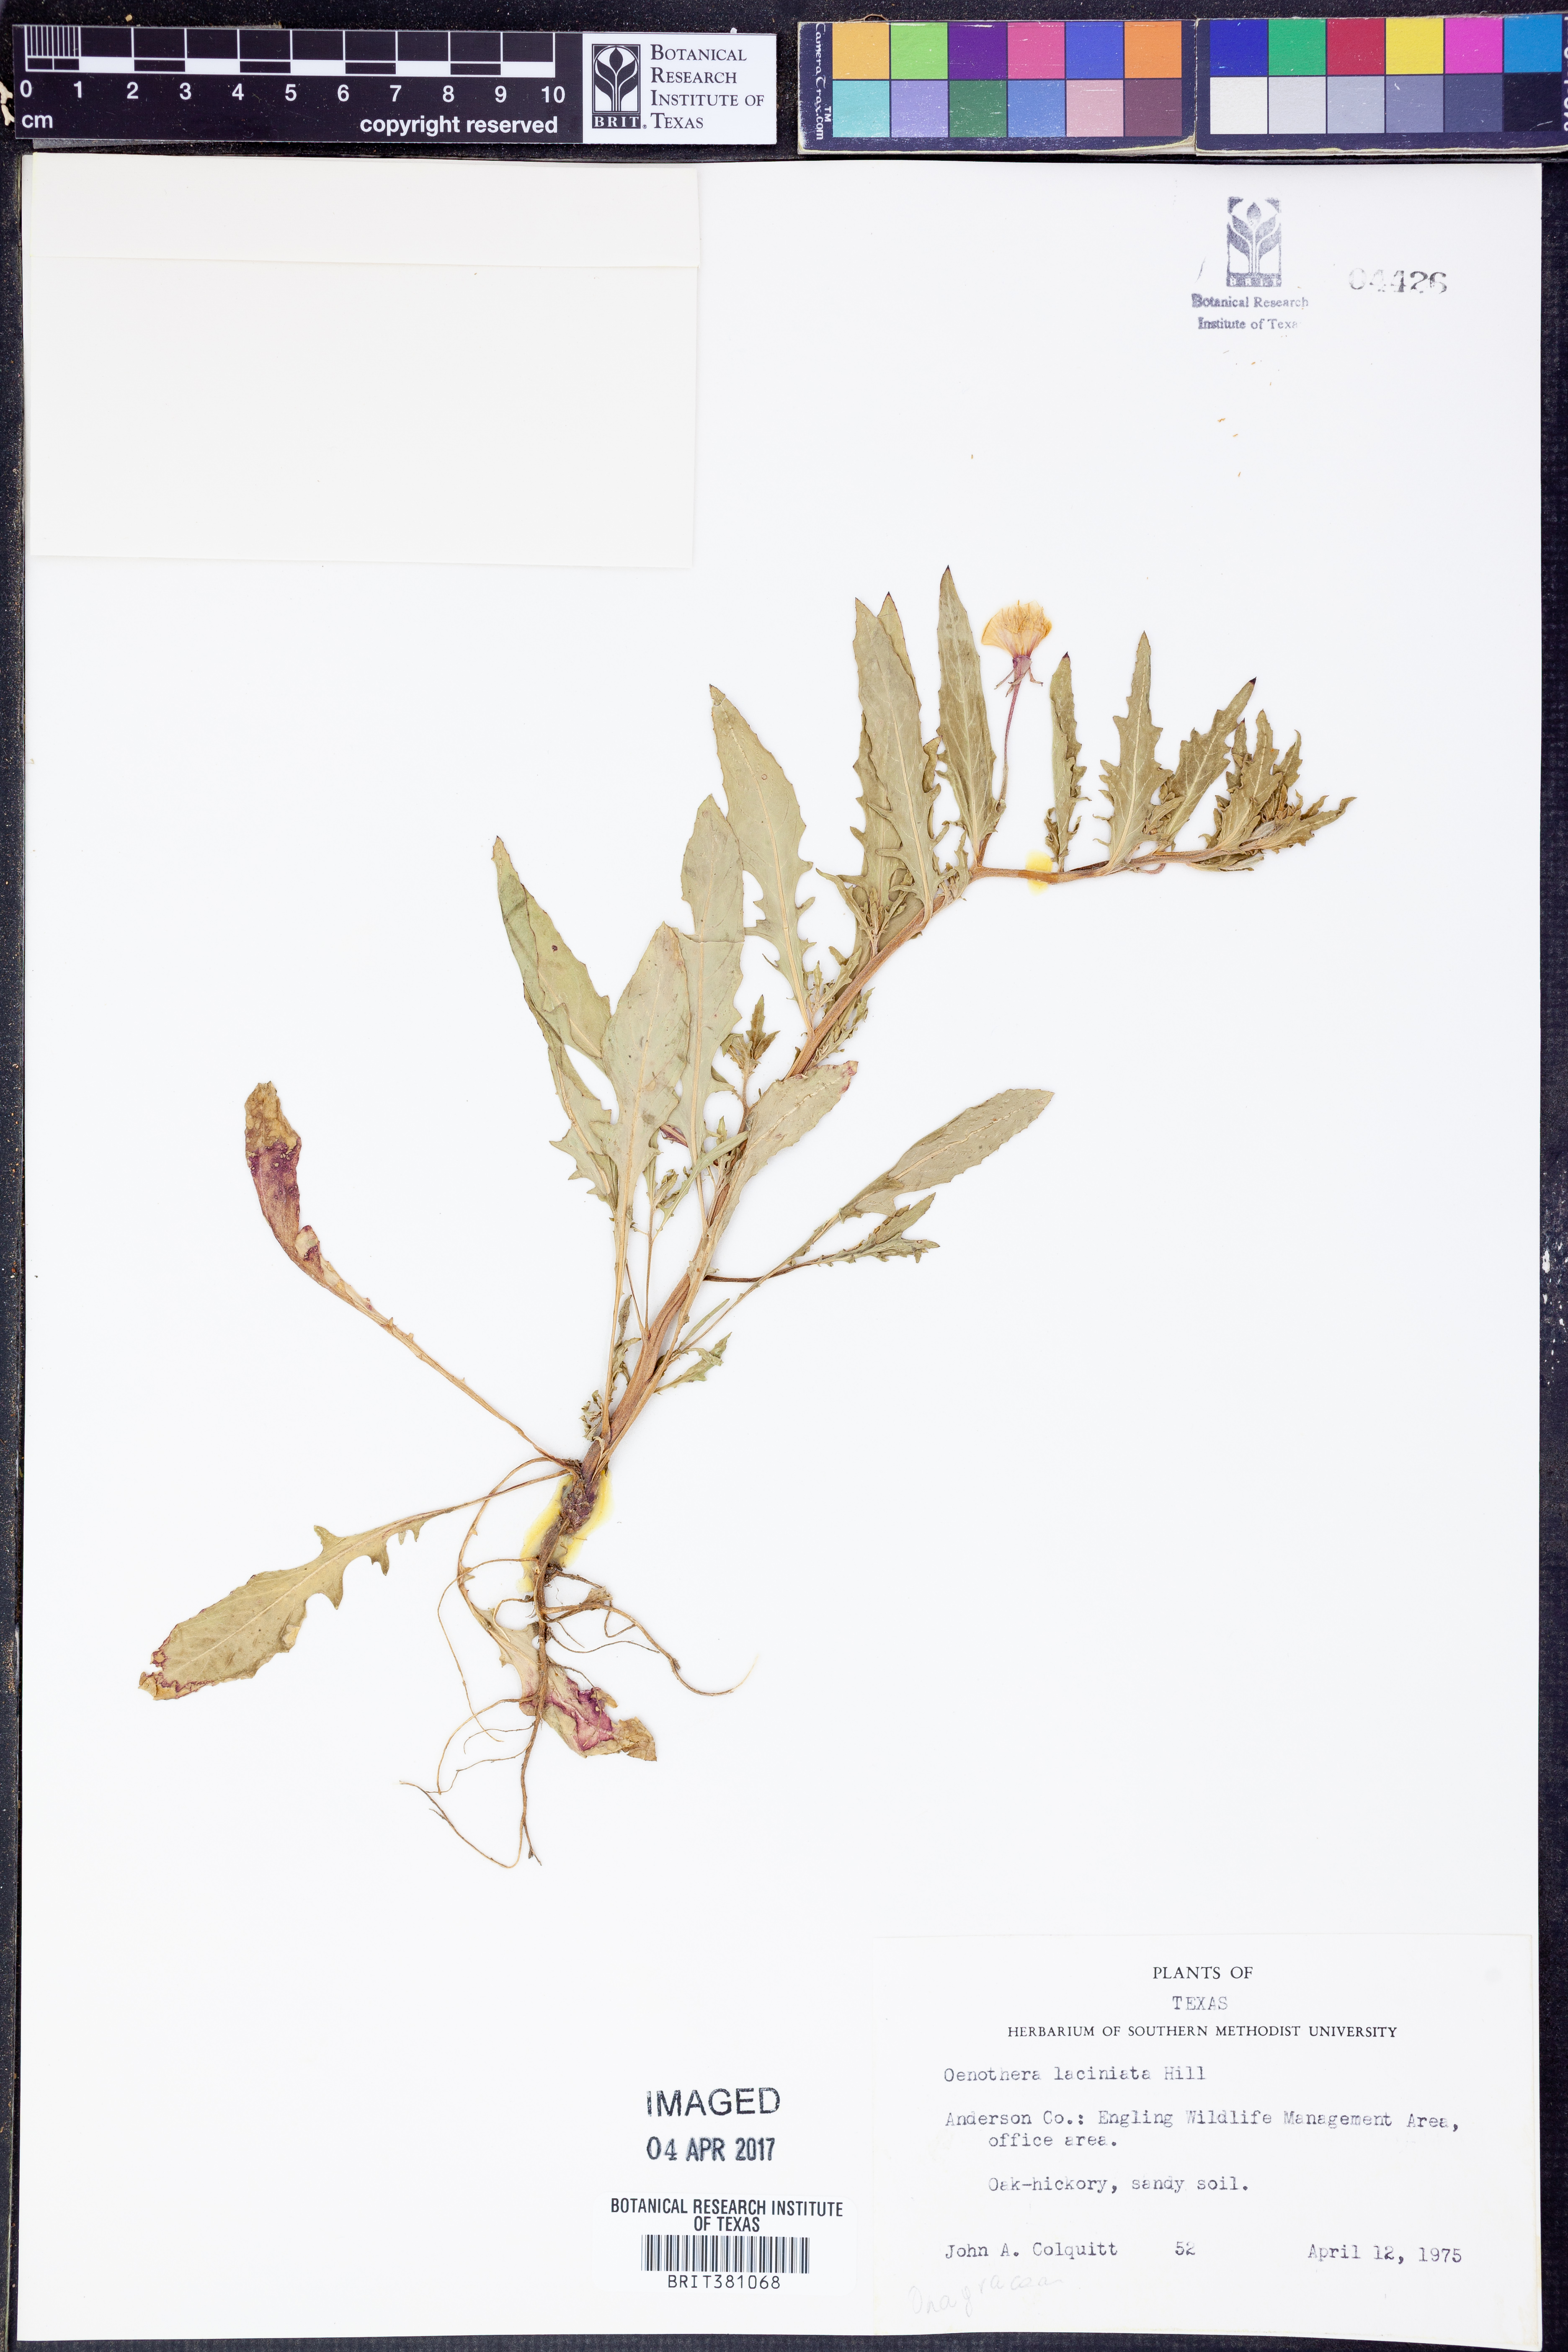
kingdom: Plantae
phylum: Tracheophyta
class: Magnoliopsida
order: Myrtales
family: Onagraceae
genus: Oenothera
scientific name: Oenothera laciniata
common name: Cut-leaved evening-primrose
